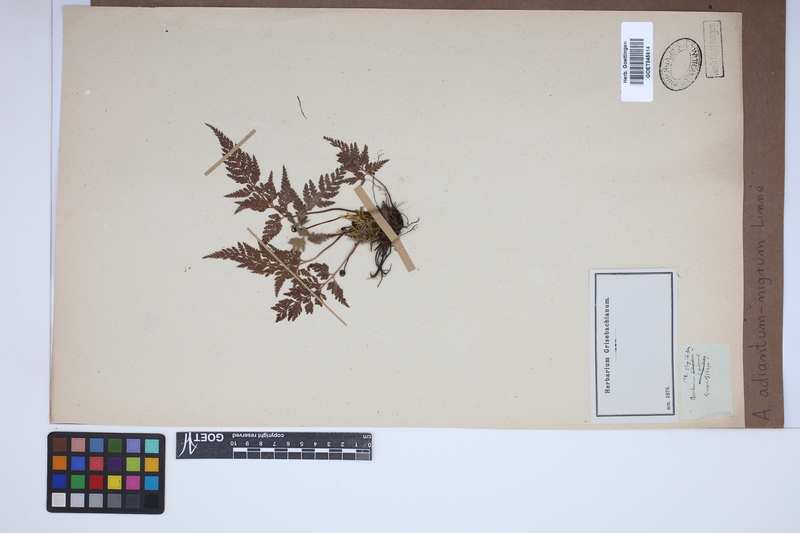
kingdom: Plantae
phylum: Tracheophyta
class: Polypodiopsida
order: Polypodiales
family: Aspleniaceae
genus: Asplenium
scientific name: Asplenium adiantum-nigrum
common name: Black spleenwort
